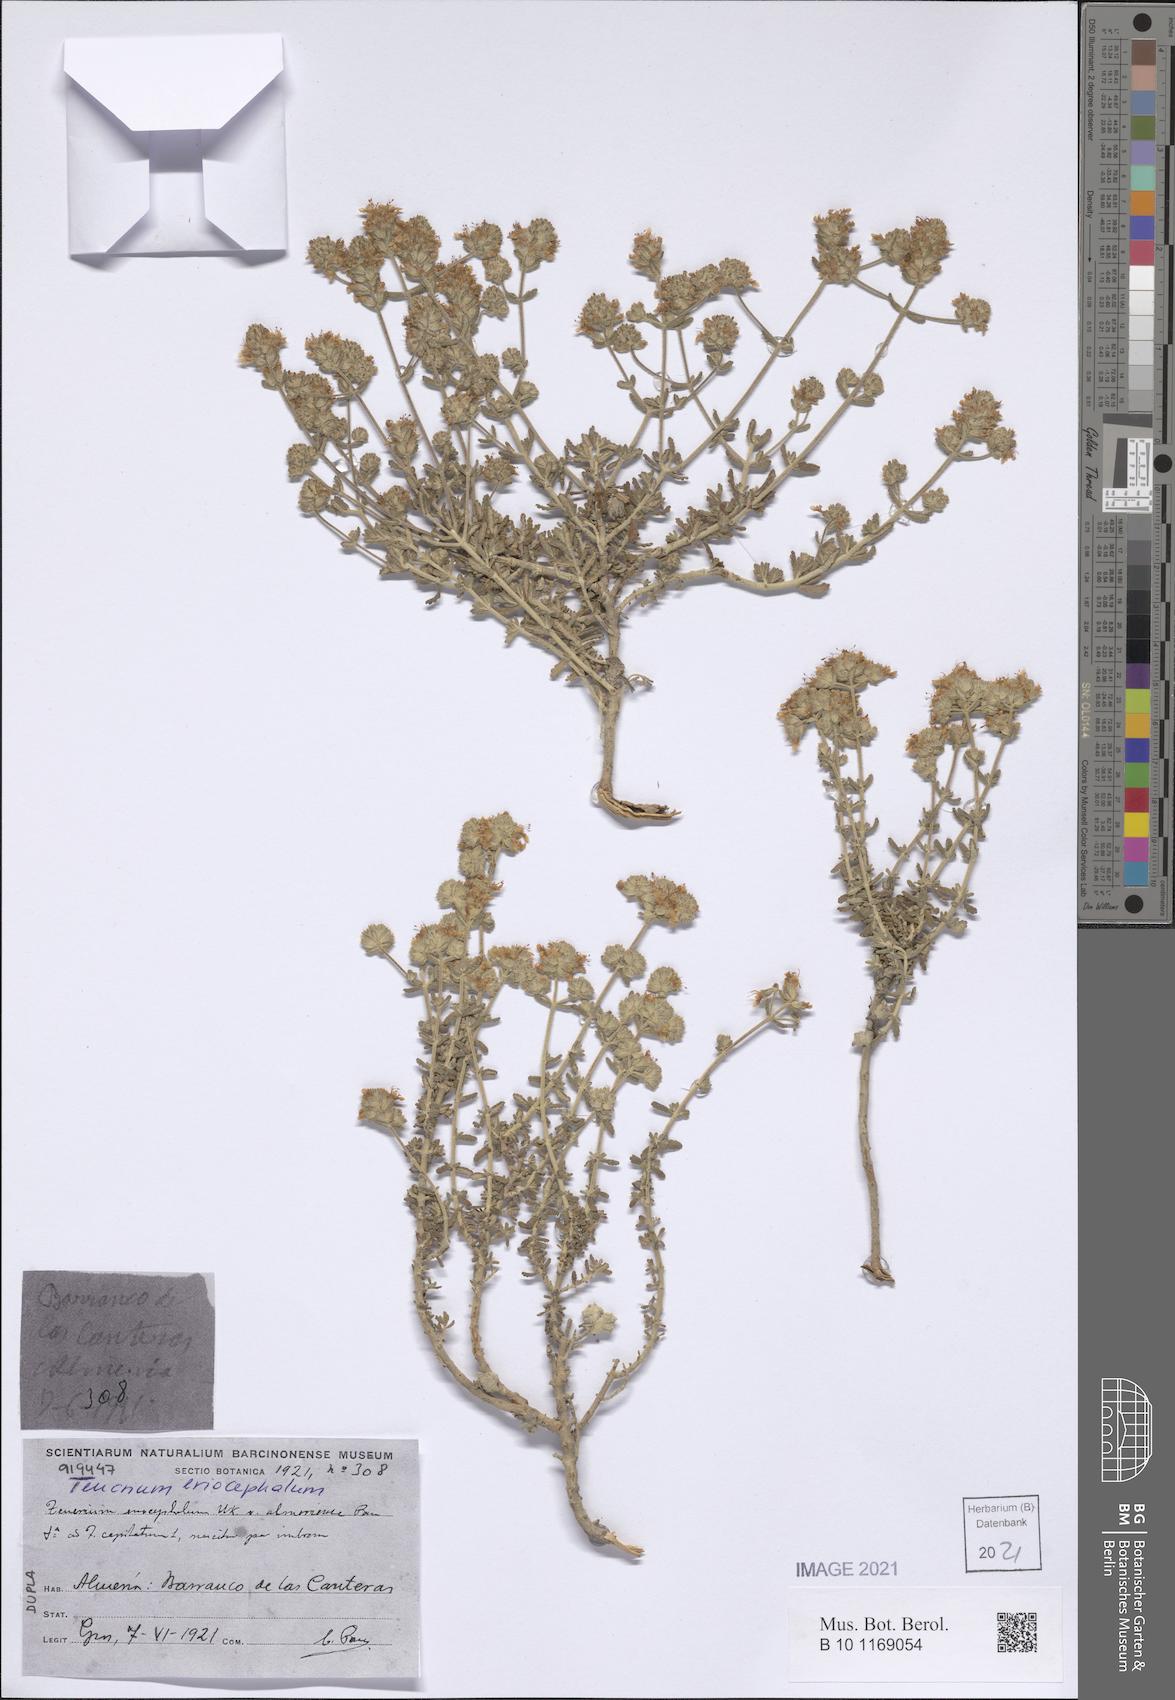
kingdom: Plantae
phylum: Tracheophyta
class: Magnoliopsida
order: Lamiales
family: Lamiaceae
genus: Teucrium
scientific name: Teucrium eriocephalum
